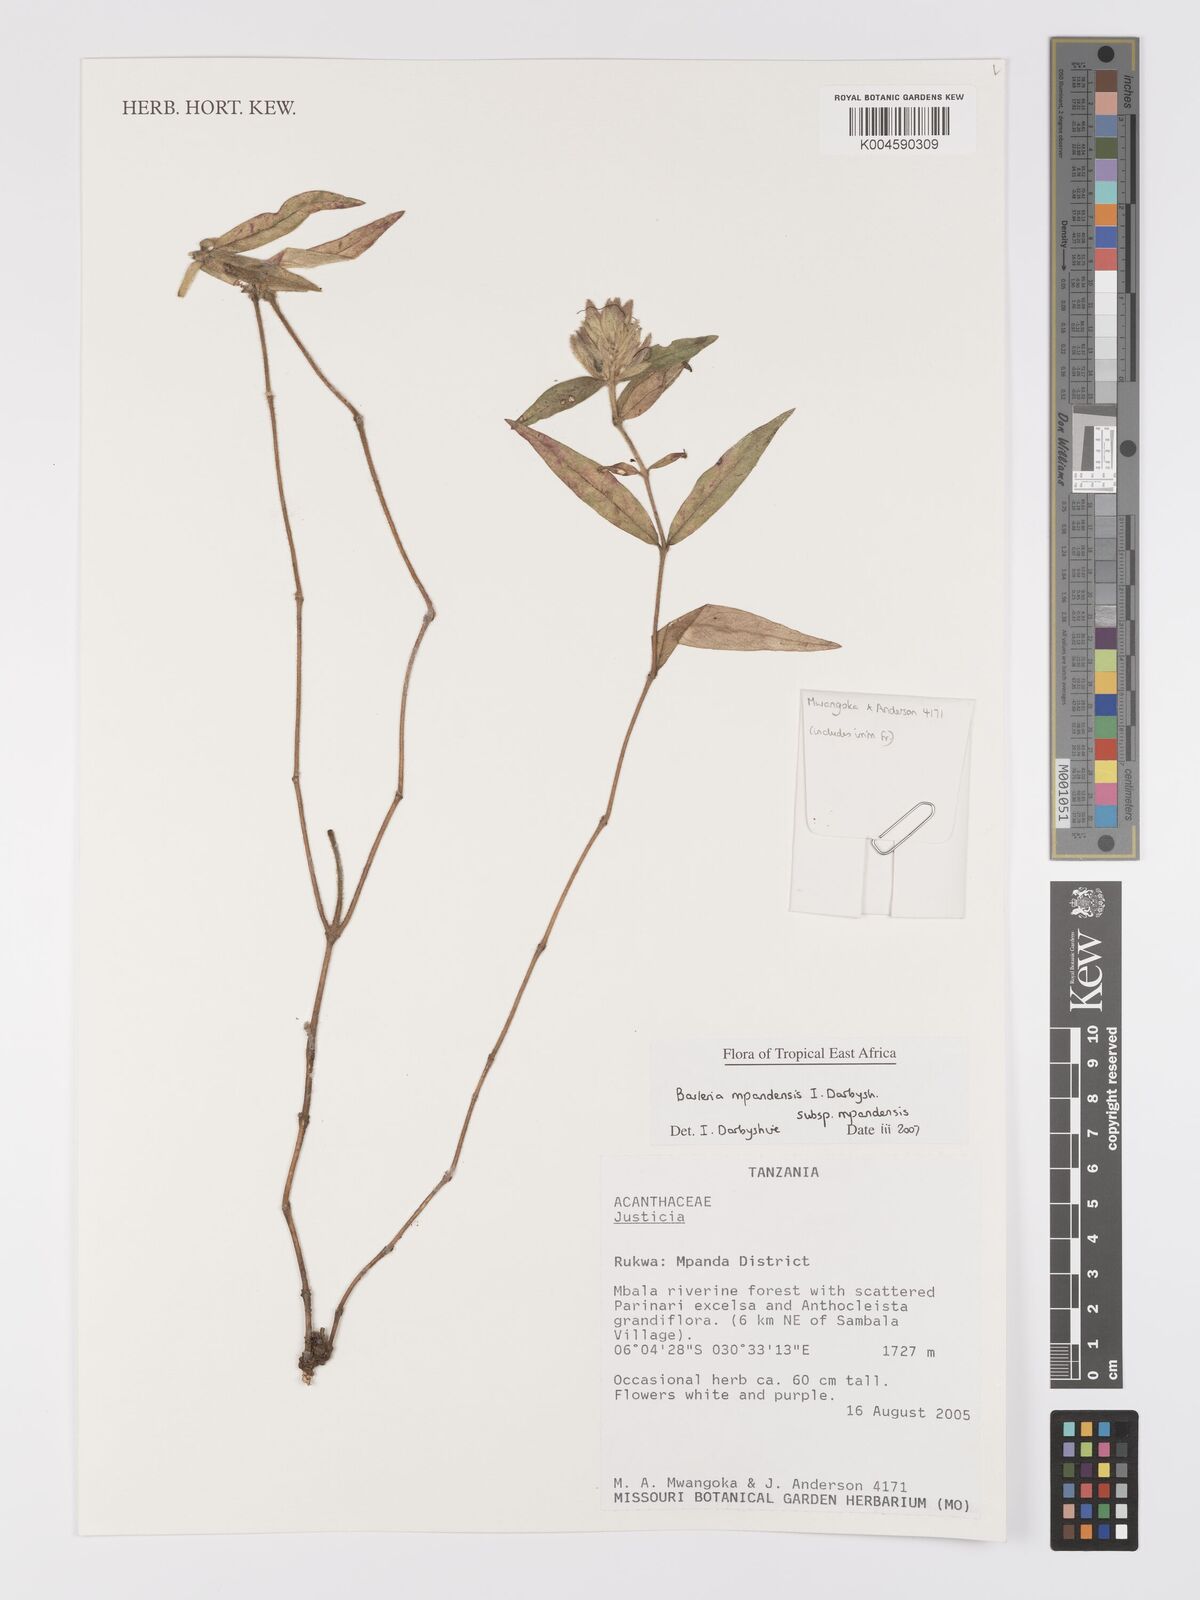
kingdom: Plantae
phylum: Tracheophyta
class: Magnoliopsida
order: Lamiales
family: Acanthaceae
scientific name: Acanthaceae
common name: Acanthaceae
